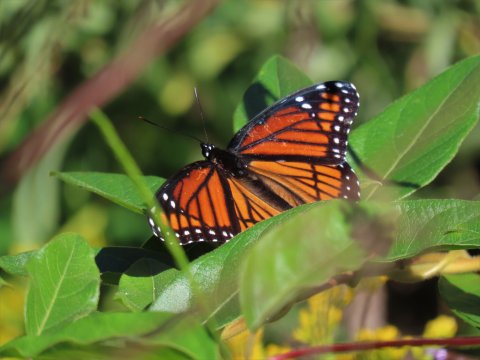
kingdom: Animalia
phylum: Arthropoda
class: Insecta
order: Lepidoptera
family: Nymphalidae
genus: Limenitis
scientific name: Limenitis archippus
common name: Viceroy
